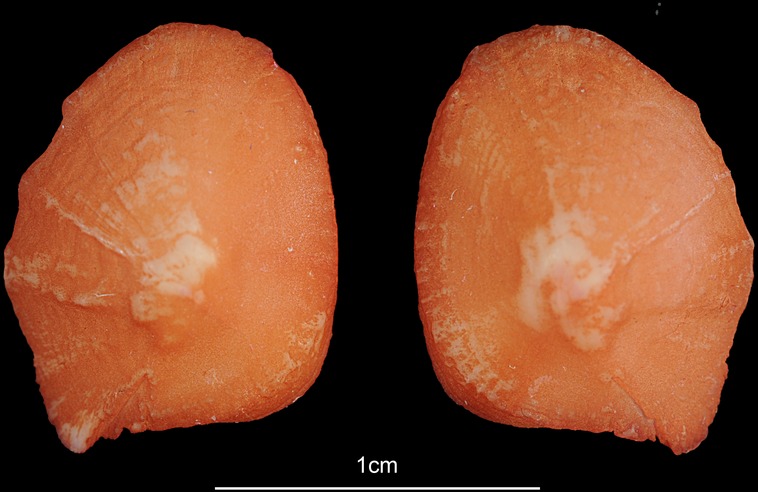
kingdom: Animalia
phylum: Chordata
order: Siluriformes
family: Ariidae
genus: Galeichthys
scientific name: Galeichthys feliceps
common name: White seacatfish
